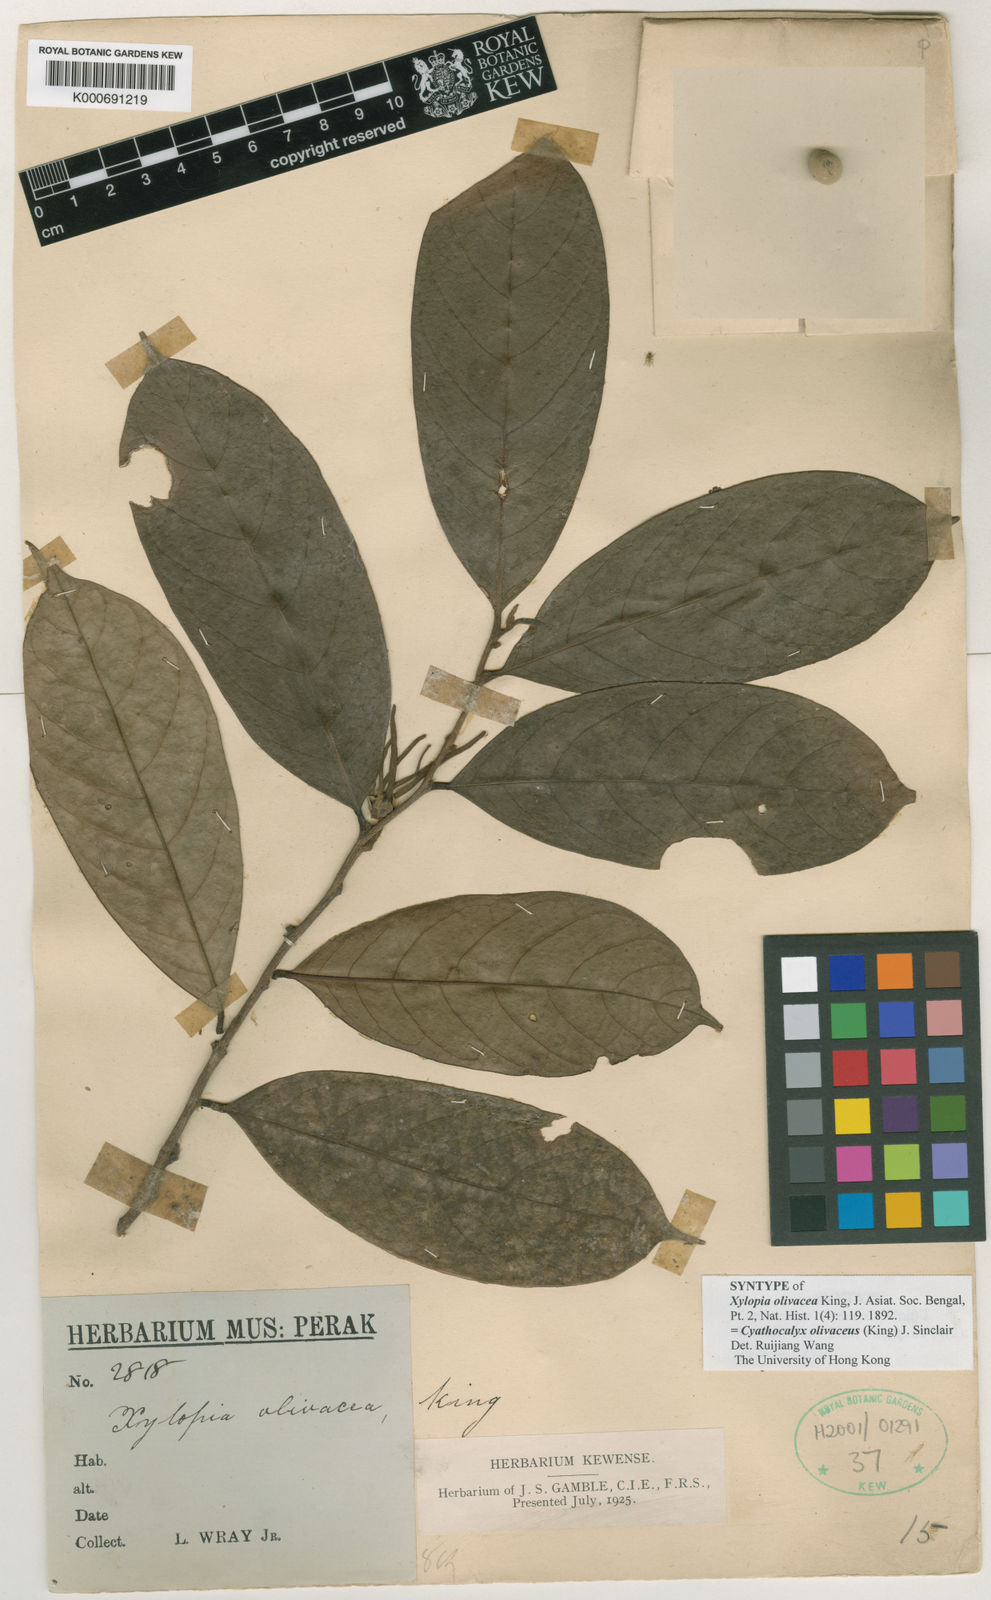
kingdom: Plantae
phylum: Tracheophyta
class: Magnoliopsida
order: Magnoliales
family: Annonaceae
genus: Drepananthus
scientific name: Drepananthus olivaceus
